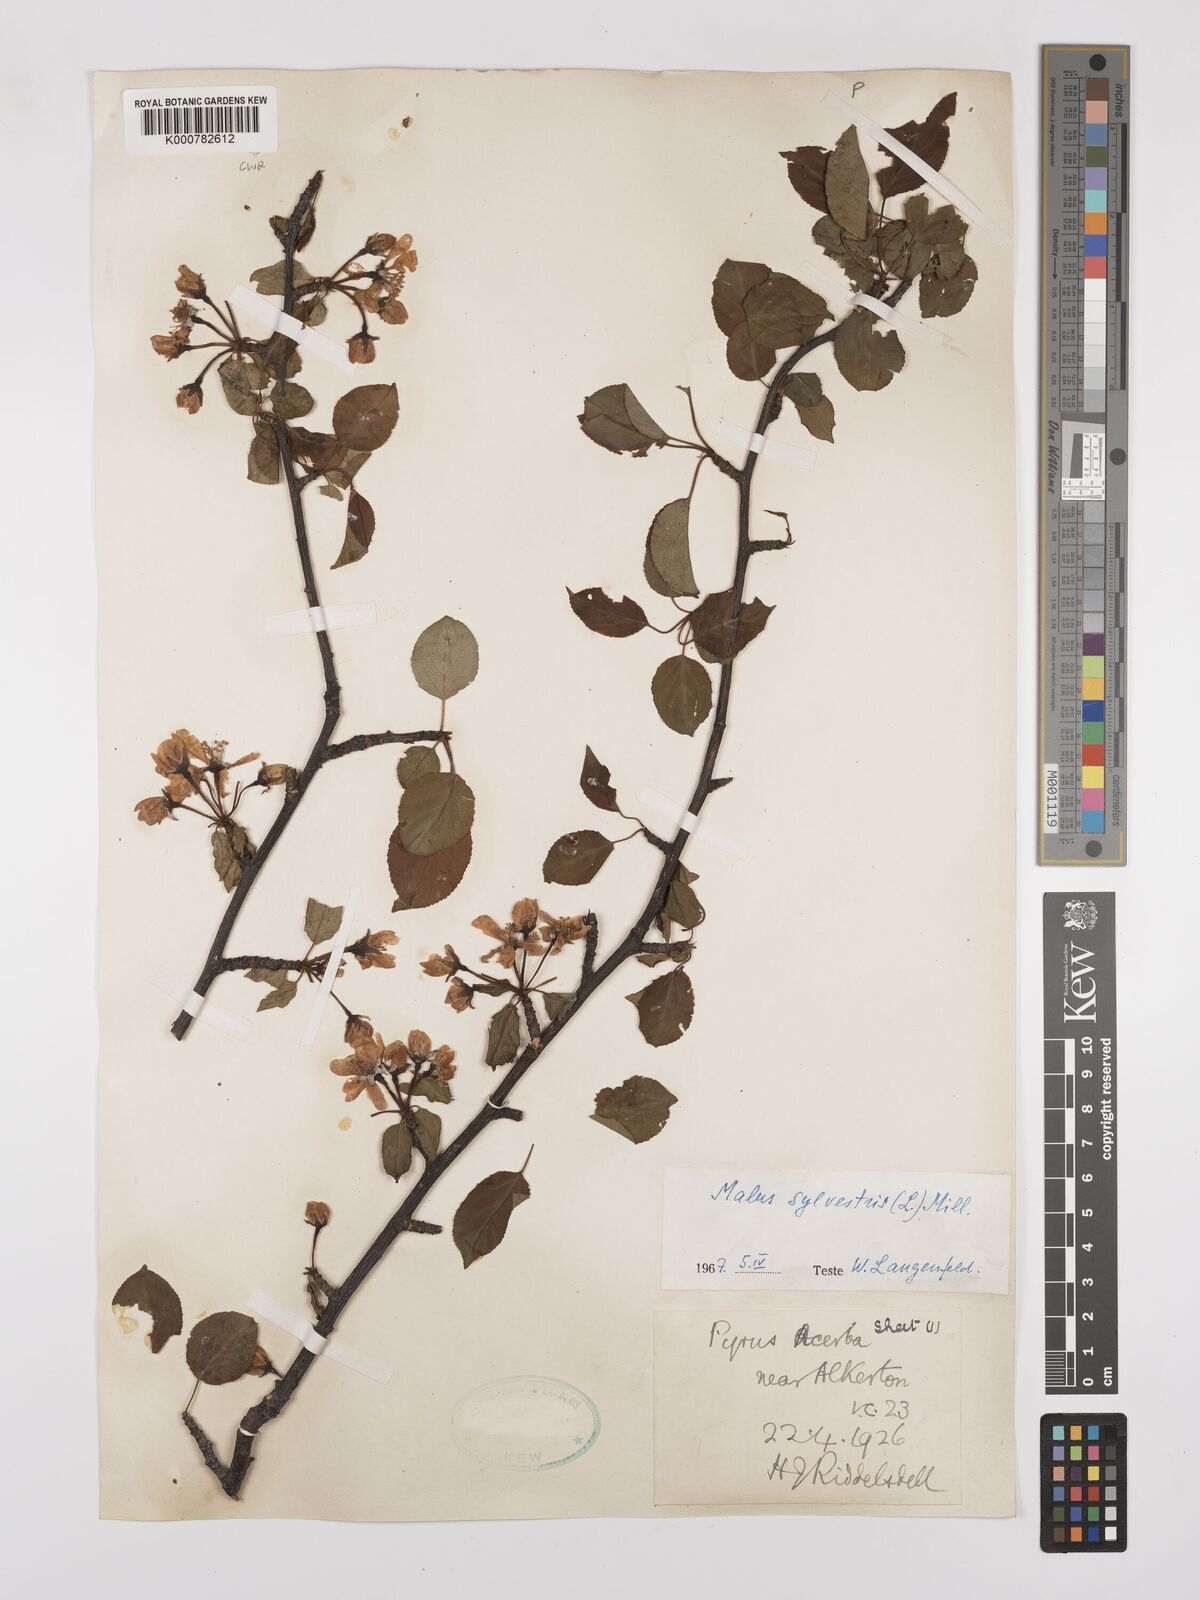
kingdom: Plantae
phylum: Tracheophyta
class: Magnoliopsida
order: Rosales
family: Rosaceae
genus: Malus
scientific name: Malus sylvestris
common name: Crab apple
